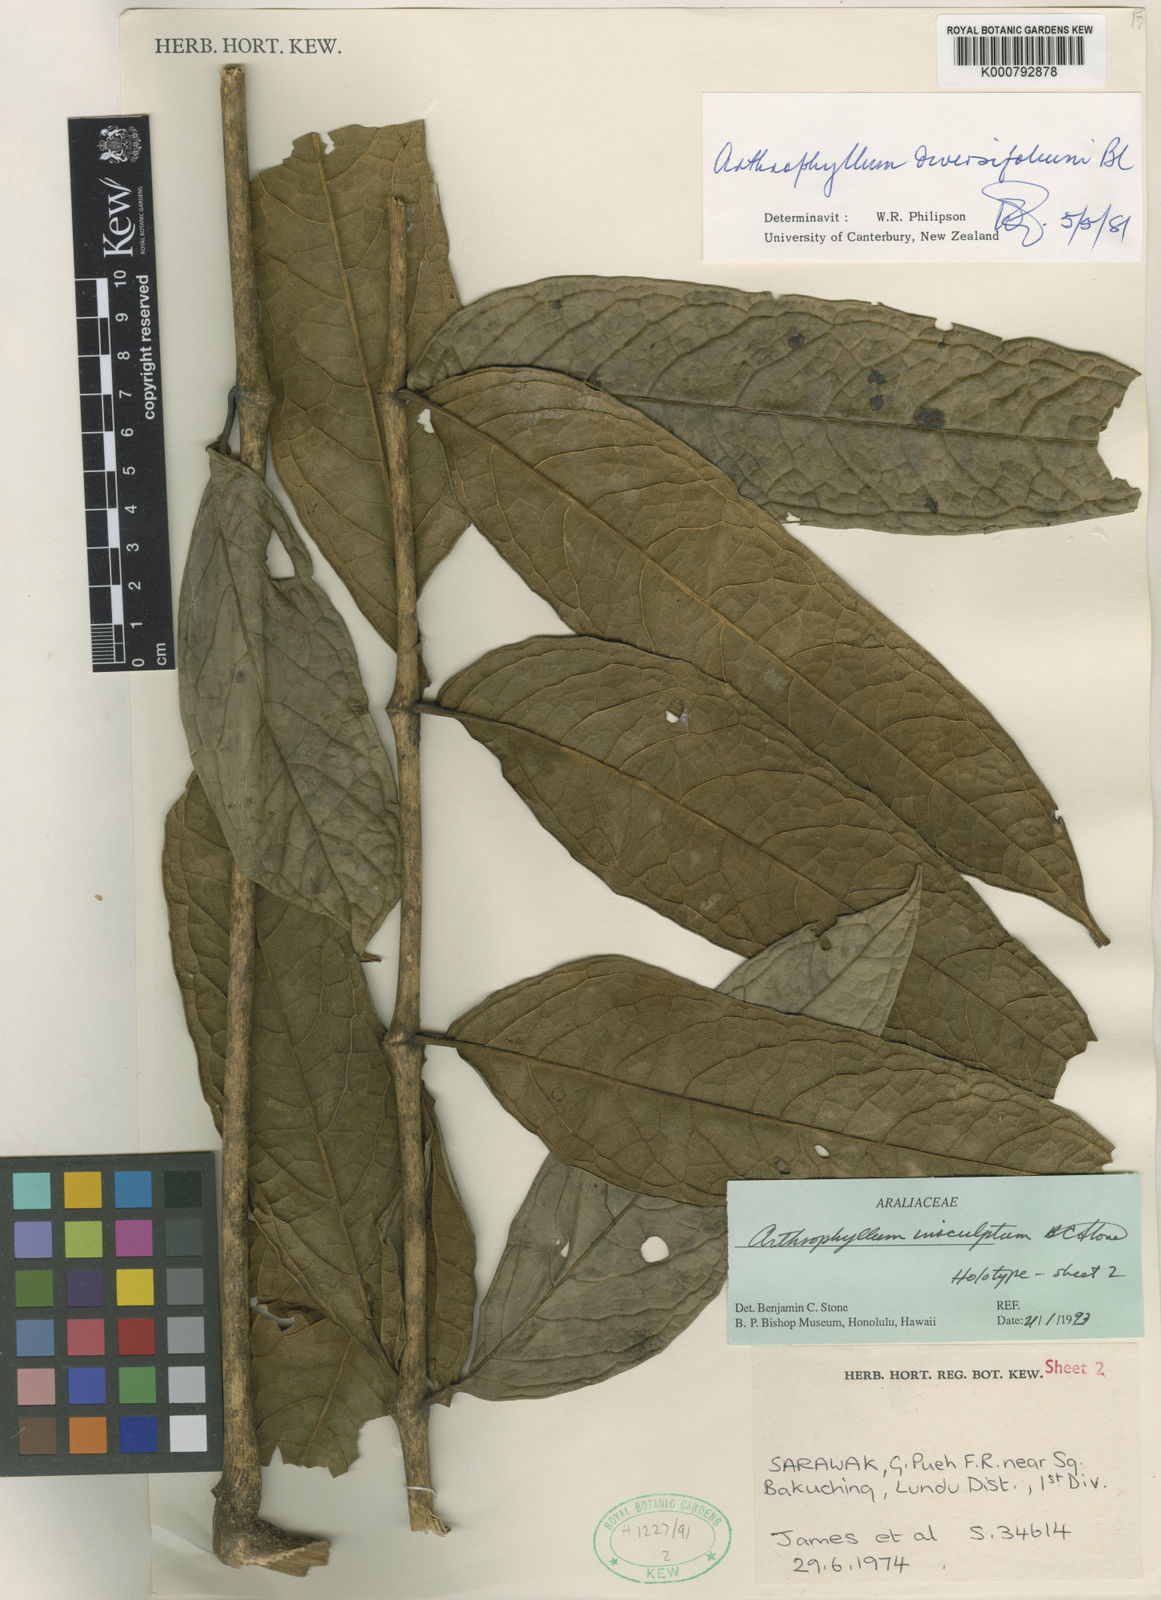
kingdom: Plantae
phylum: Tracheophyta
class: Magnoliopsida
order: Lamiales
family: Bignoniaceae
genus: Arthrophyllum
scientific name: Arthrophyllum
